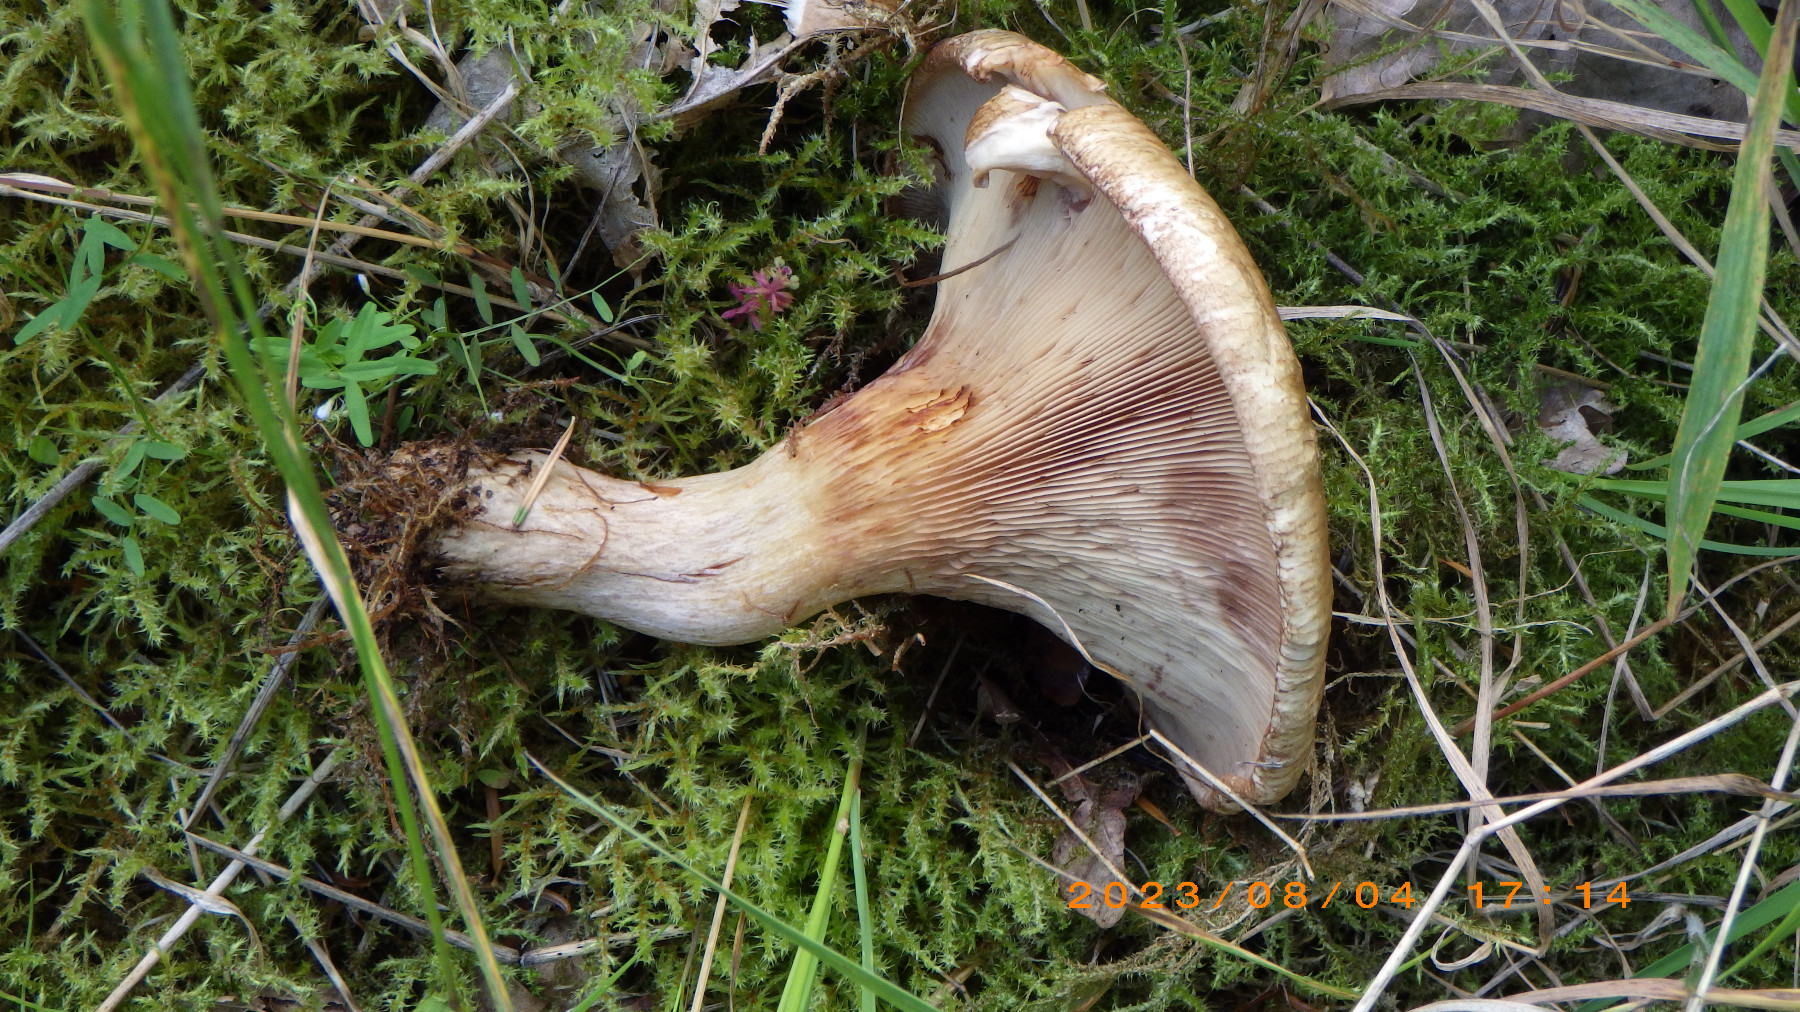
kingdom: Fungi
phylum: Basidiomycota
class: Agaricomycetes
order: Boletales
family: Paxillaceae
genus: Paxillus
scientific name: Paxillus involutus
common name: almindelig netbladhat
